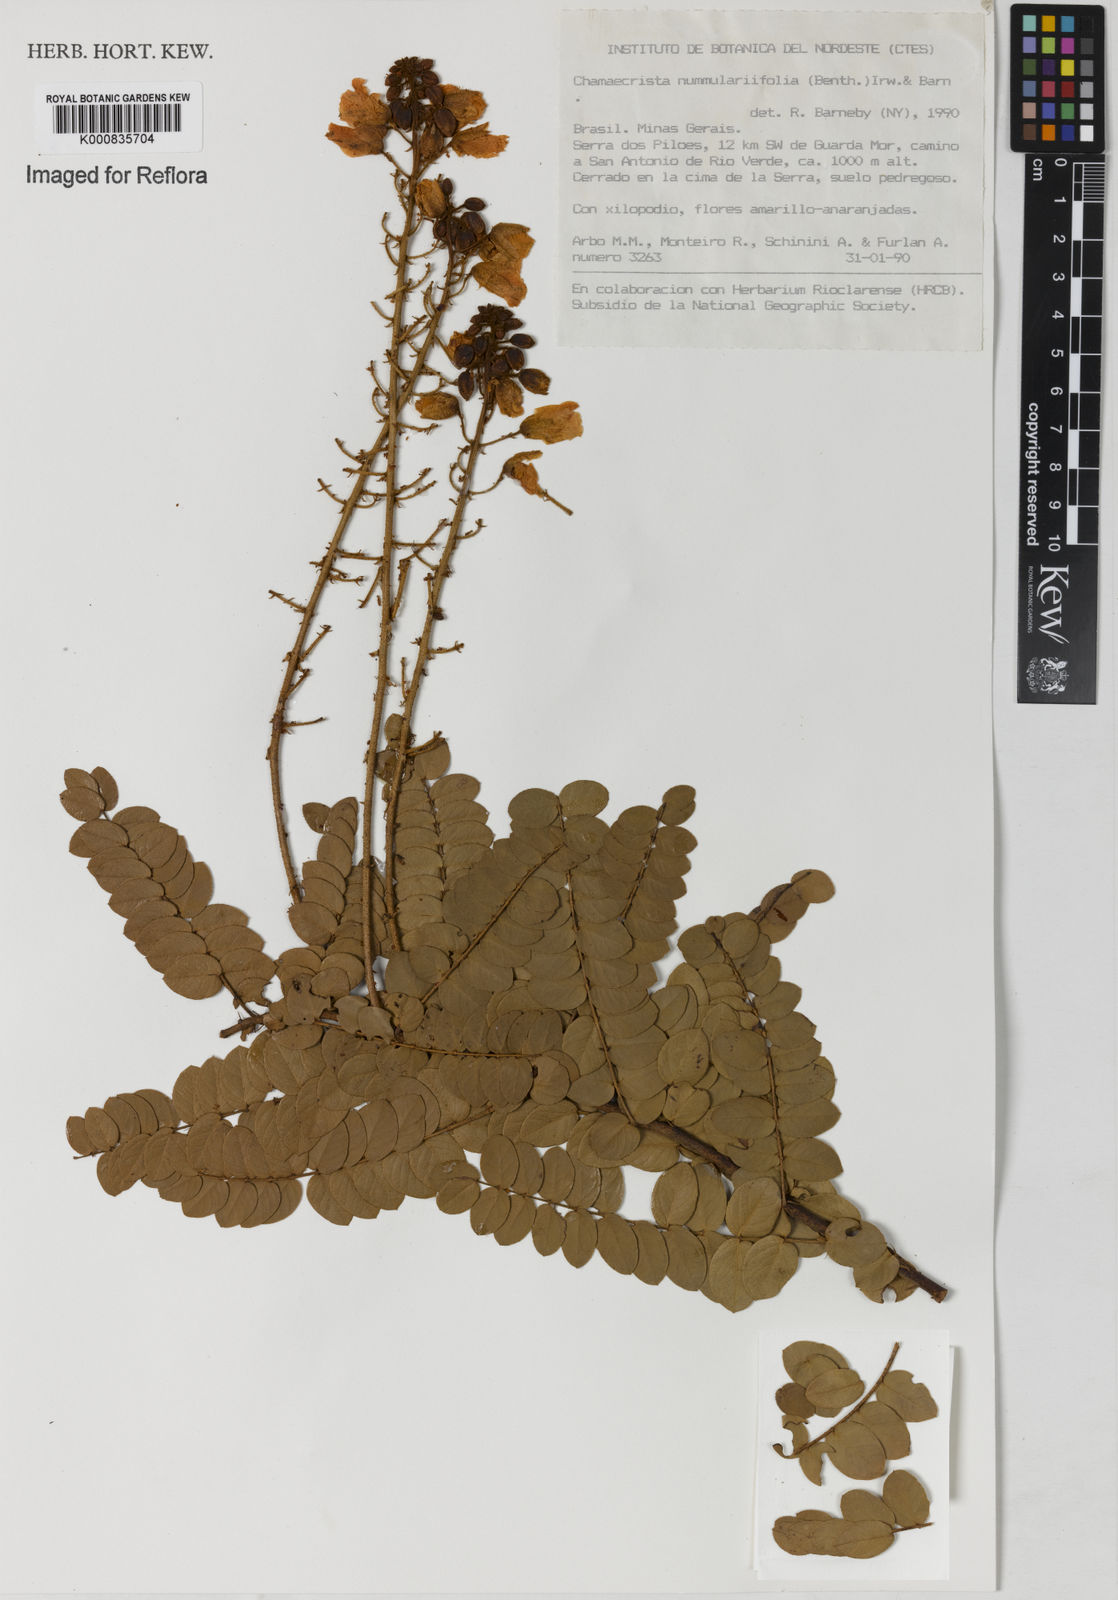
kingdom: Plantae
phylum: Tracheophyta
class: Magnoliopsida
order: Fabales
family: Fabaceae
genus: Chamaecrista
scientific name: Chamaecrista nummulariifolia
